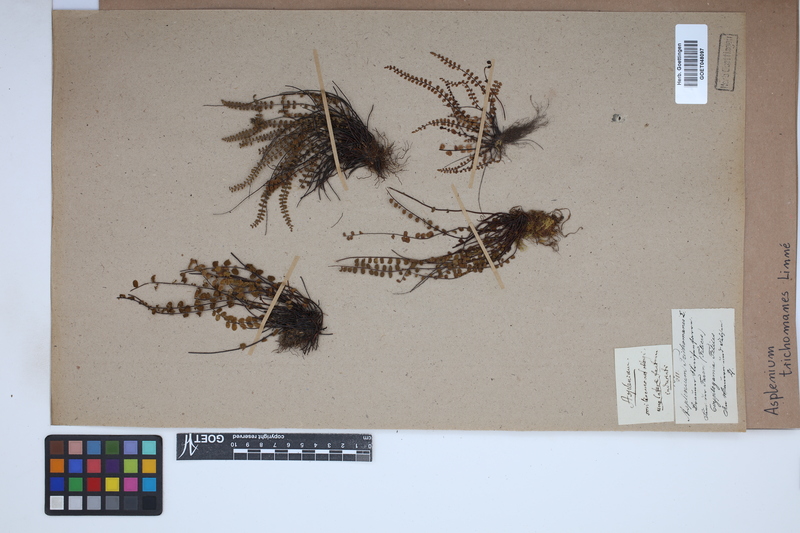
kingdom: Plantae
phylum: Tracheophyta
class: Polypodiopsida
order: Polypodiales
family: Aspleniaceae
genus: Asplenium
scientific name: Asplenium trichomanes
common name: Maidenhair spleenwort
